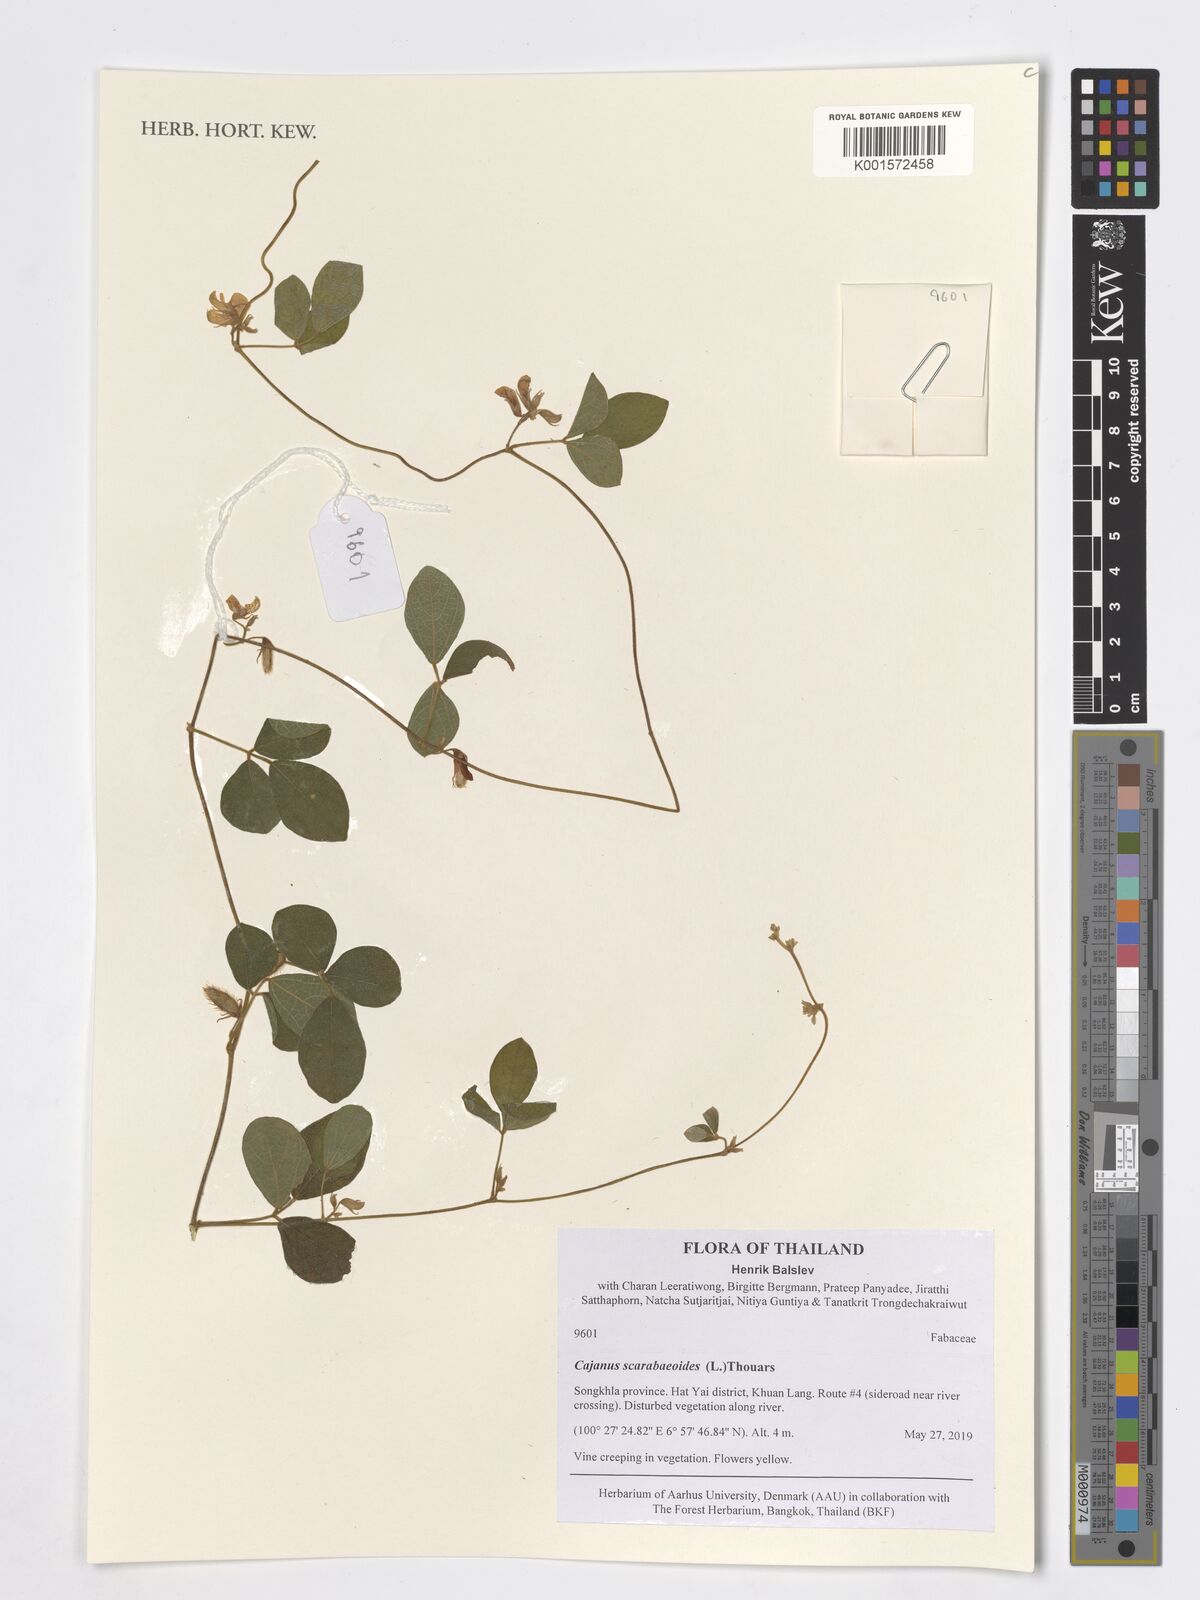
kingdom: Plantae
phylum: Tracheophyta
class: Magnoliopsida
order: Fabales
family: Fabaceae
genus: Cajanus
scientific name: Cajanus scarabaeoides
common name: Showy pigeonpea
